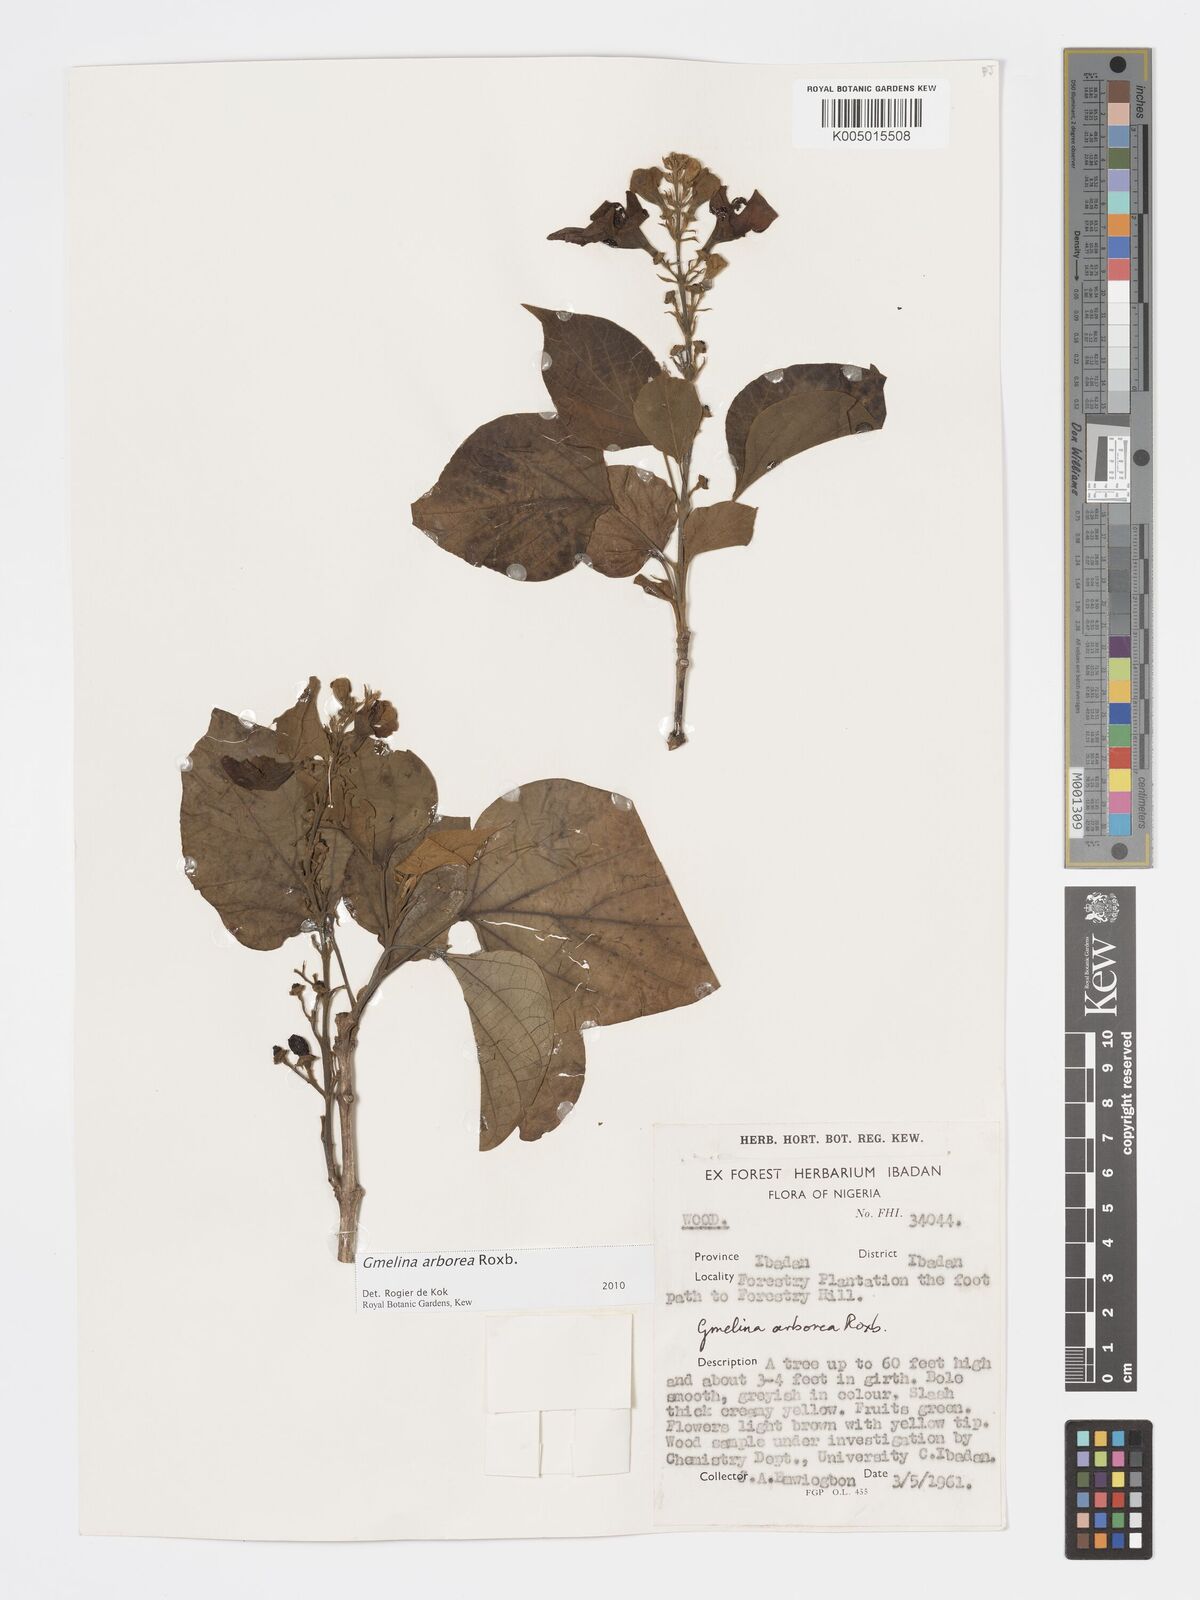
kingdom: Plantae
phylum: Tracheophyta
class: Magnoliopsida
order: Lamiales
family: Lamiaceae
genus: Gmelina
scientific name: Gmelina arborea
